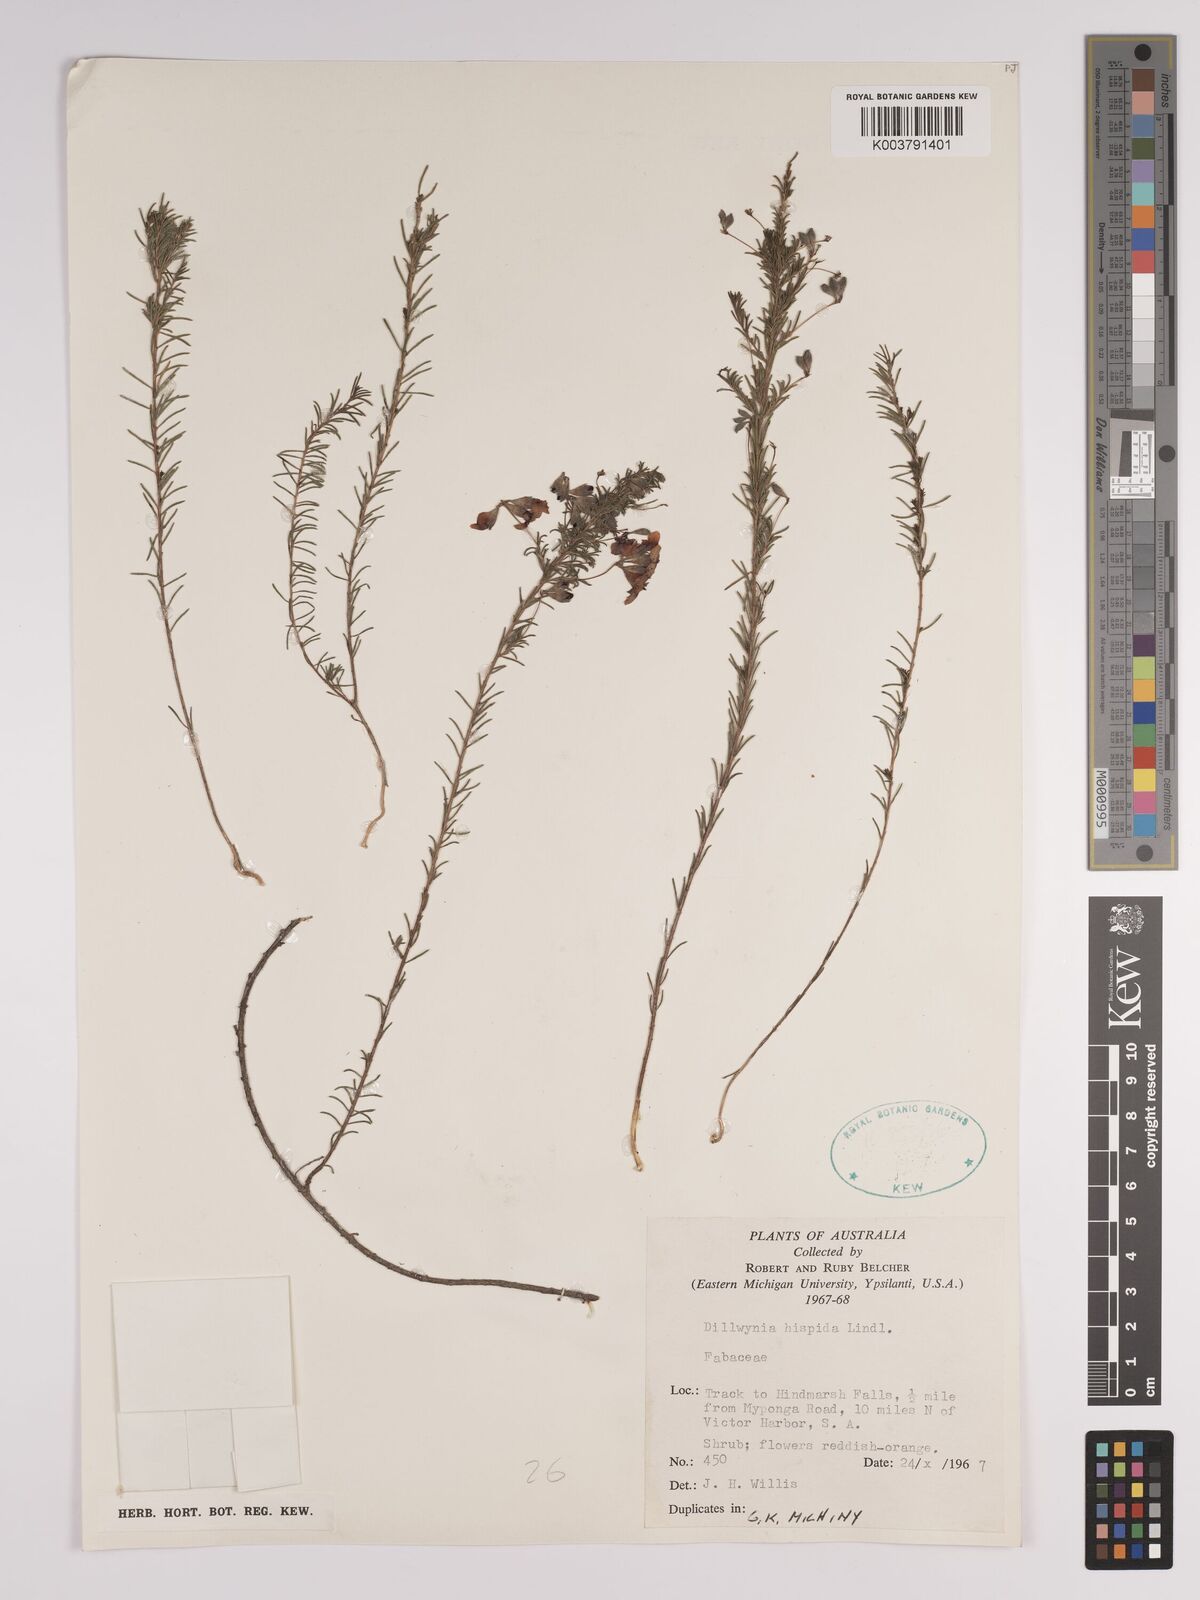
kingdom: Plantae
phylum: Tracheophyta
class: Magnoliopsida
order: Fabales
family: Fabaceae
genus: Dillwynia
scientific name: Dillwynia hispida
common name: Red parrot-pea
